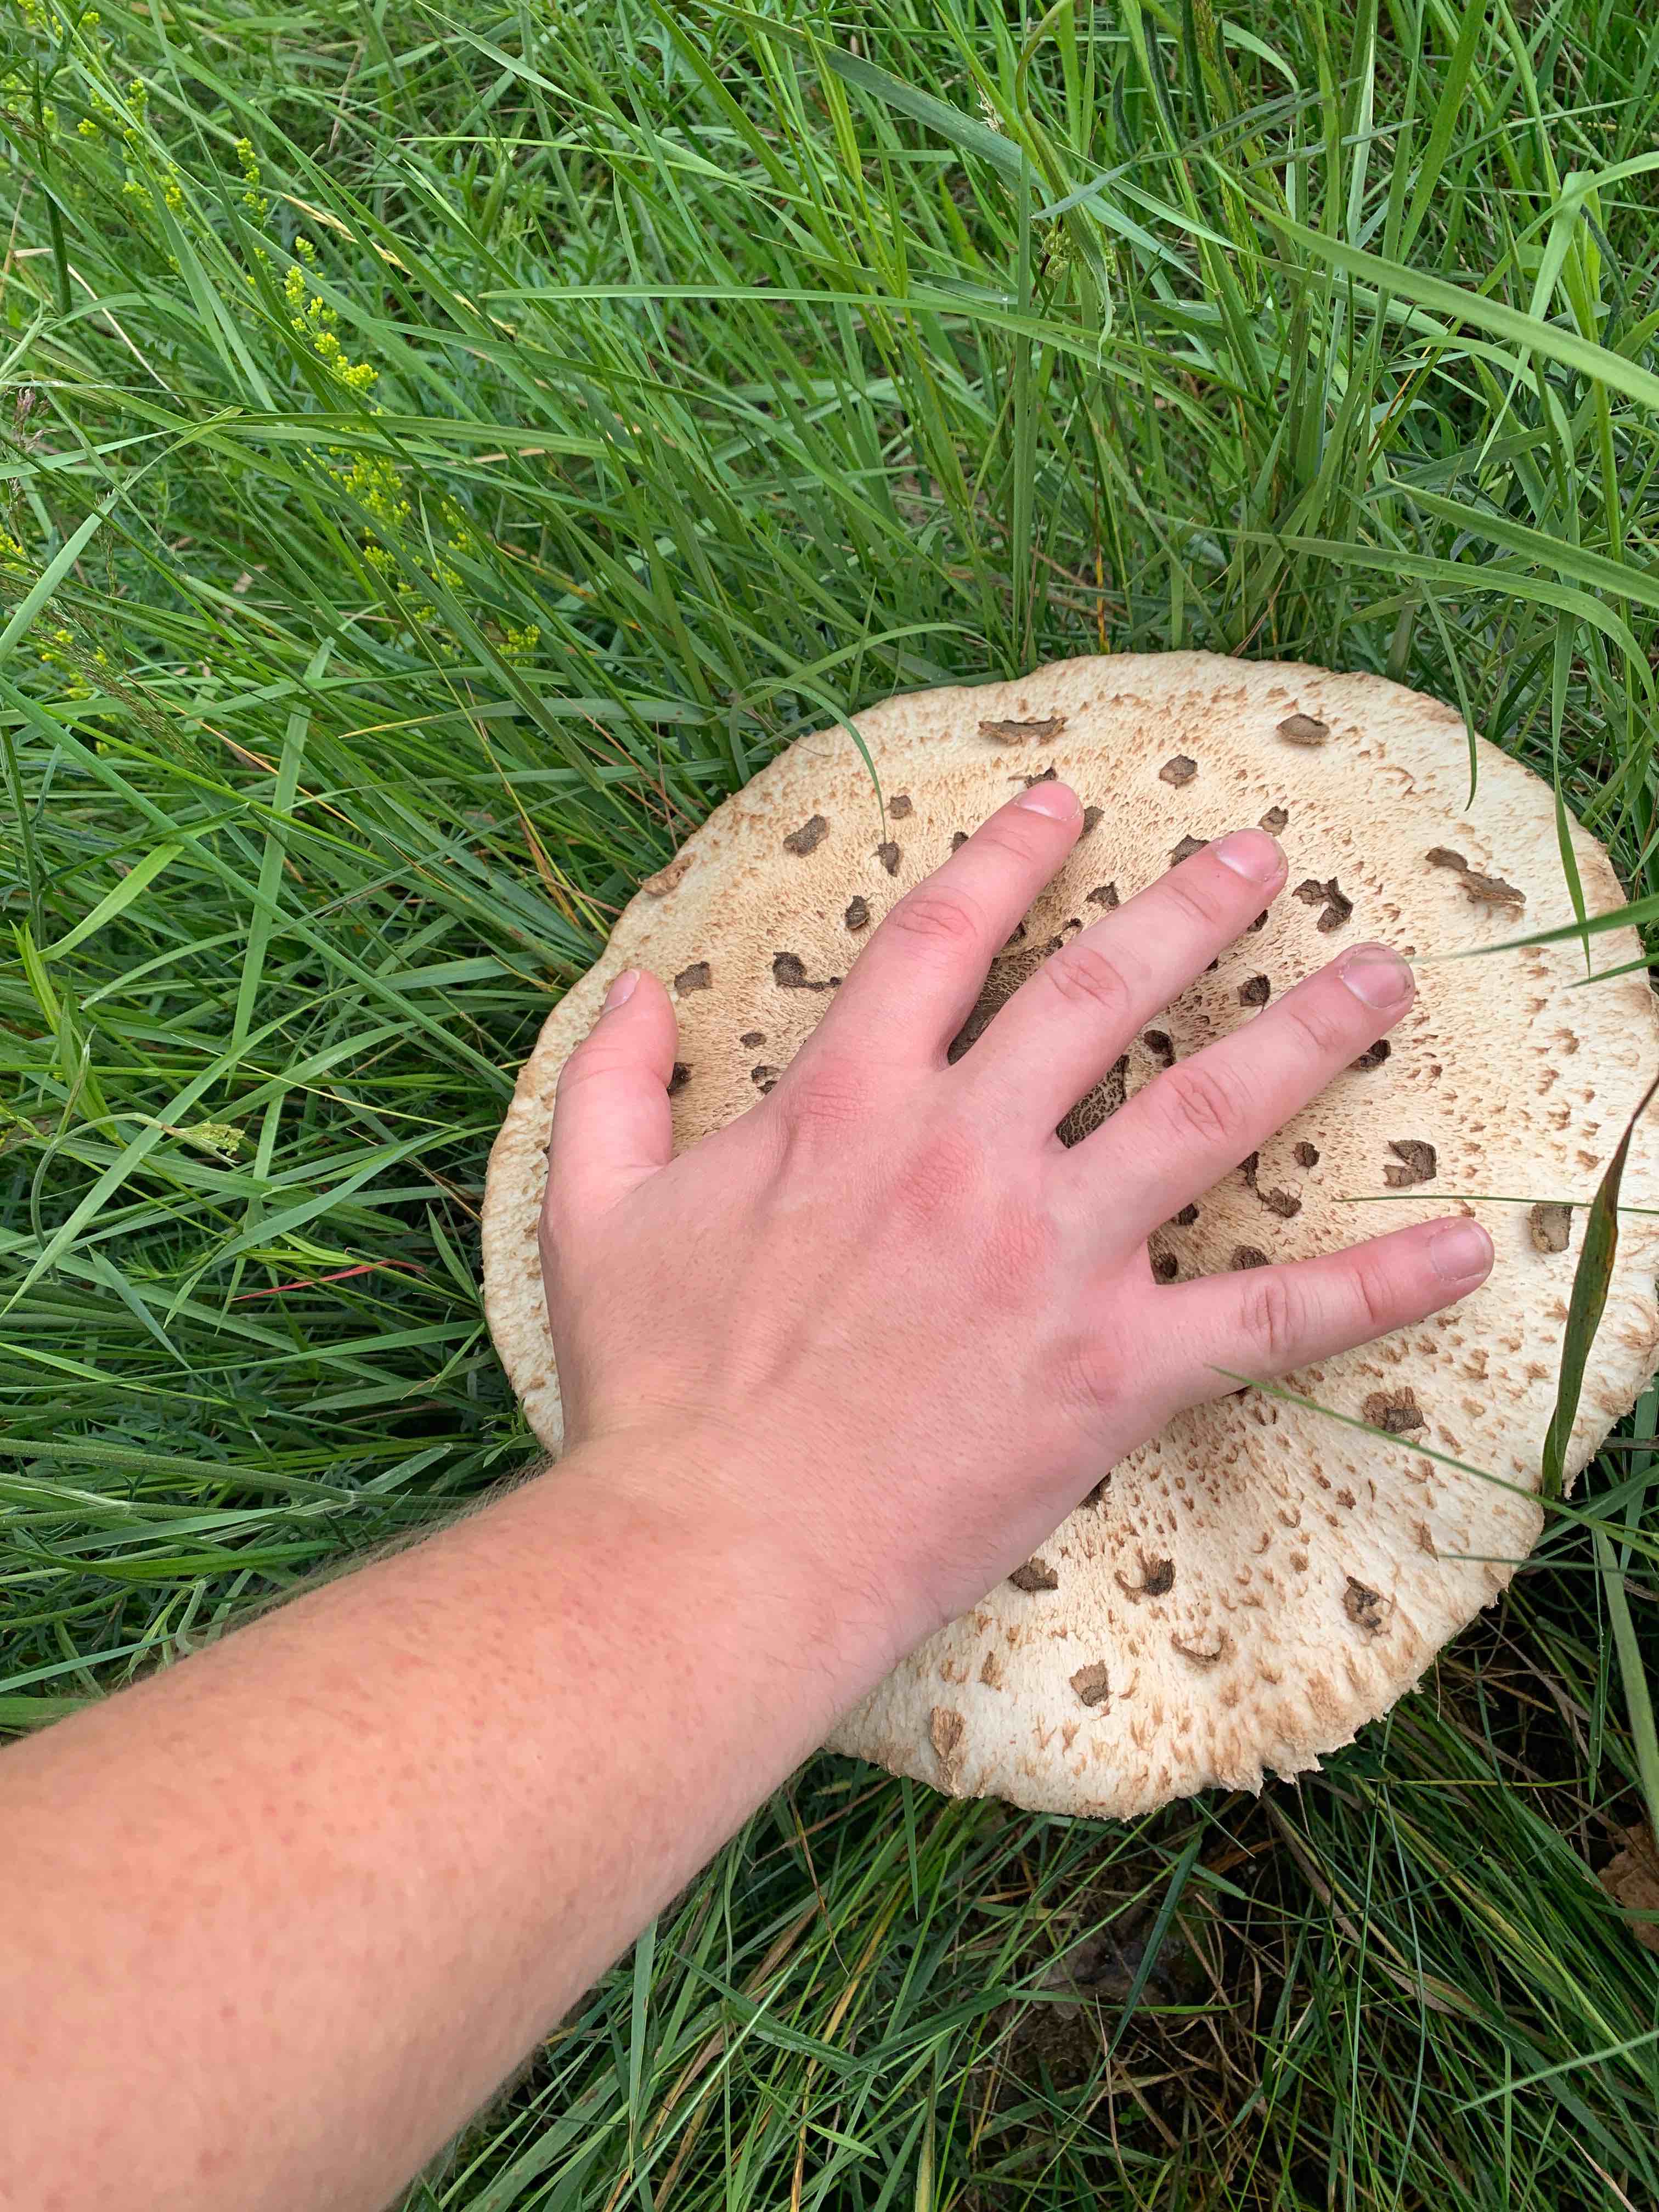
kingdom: Fungi
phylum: Basidiomycota
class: Agaricomycetes
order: Agaricales
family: Agaricaceae
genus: Macrolepiota
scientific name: Macrolepiota
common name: kæmpeparasolhat
